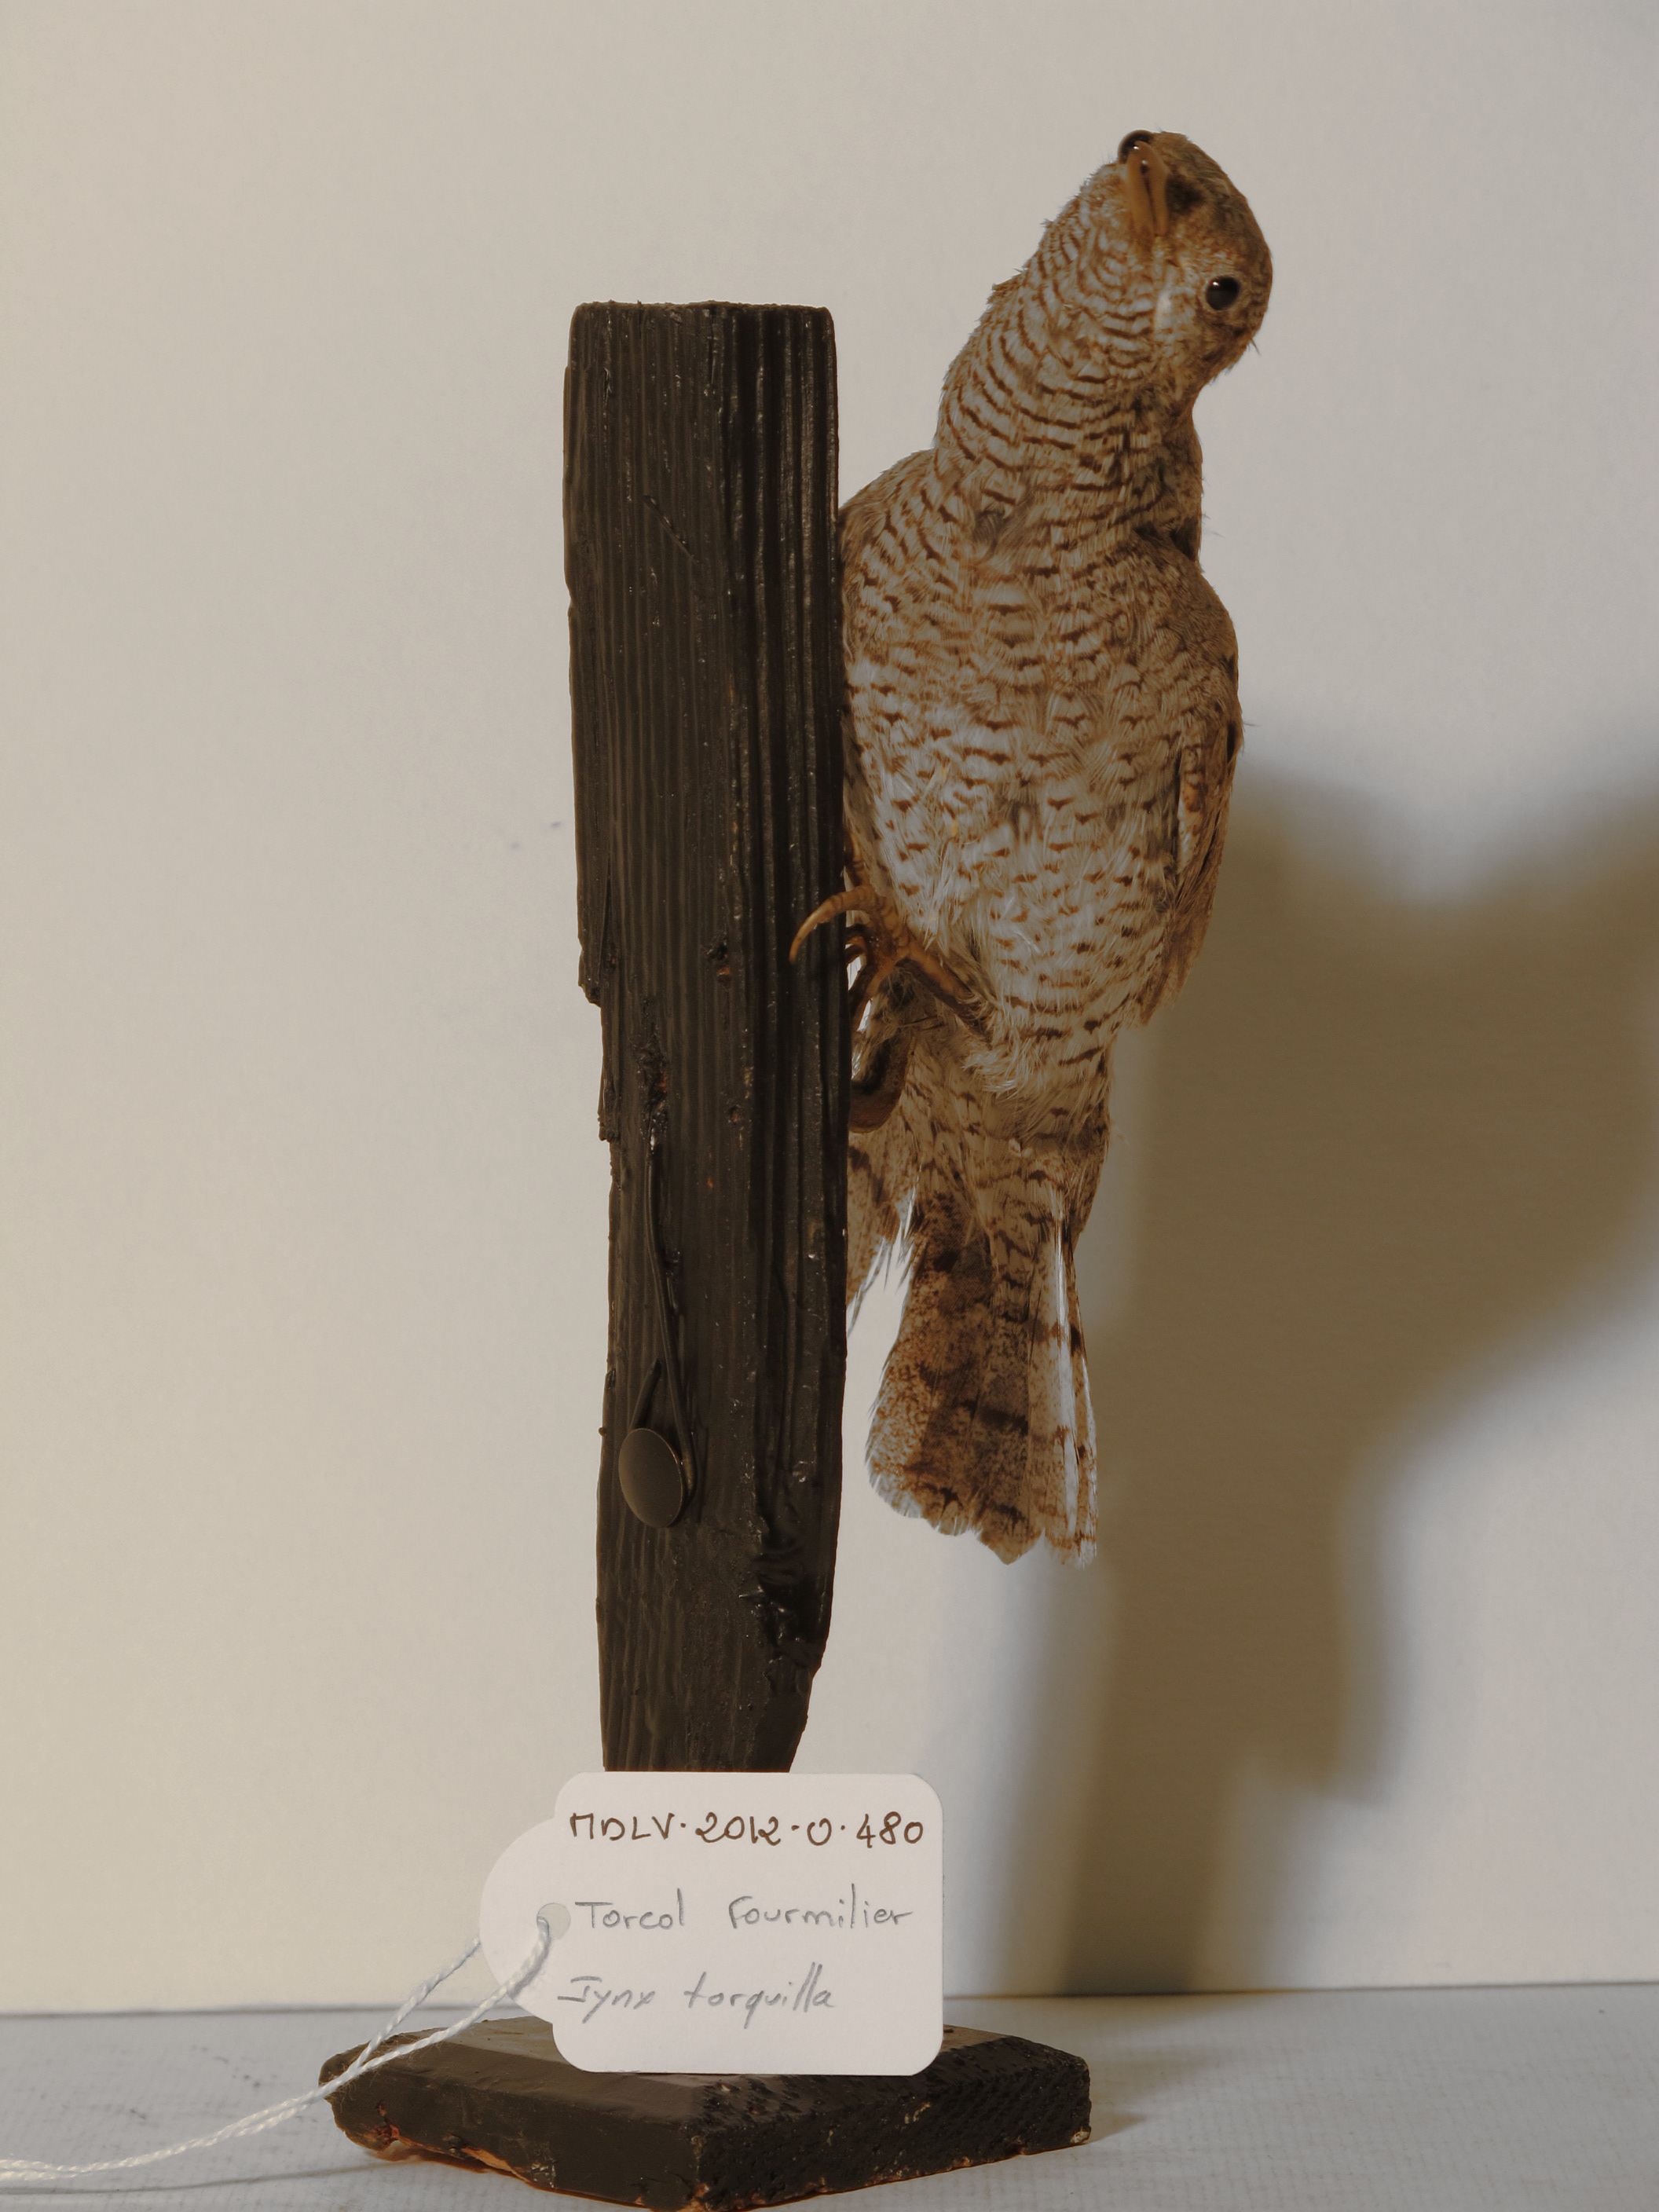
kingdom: Animalia
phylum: Chordata
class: Aves
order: Piciformes
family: Picidae
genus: Jynx
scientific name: Jynx torquilla
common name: Eurasian Wryneck
